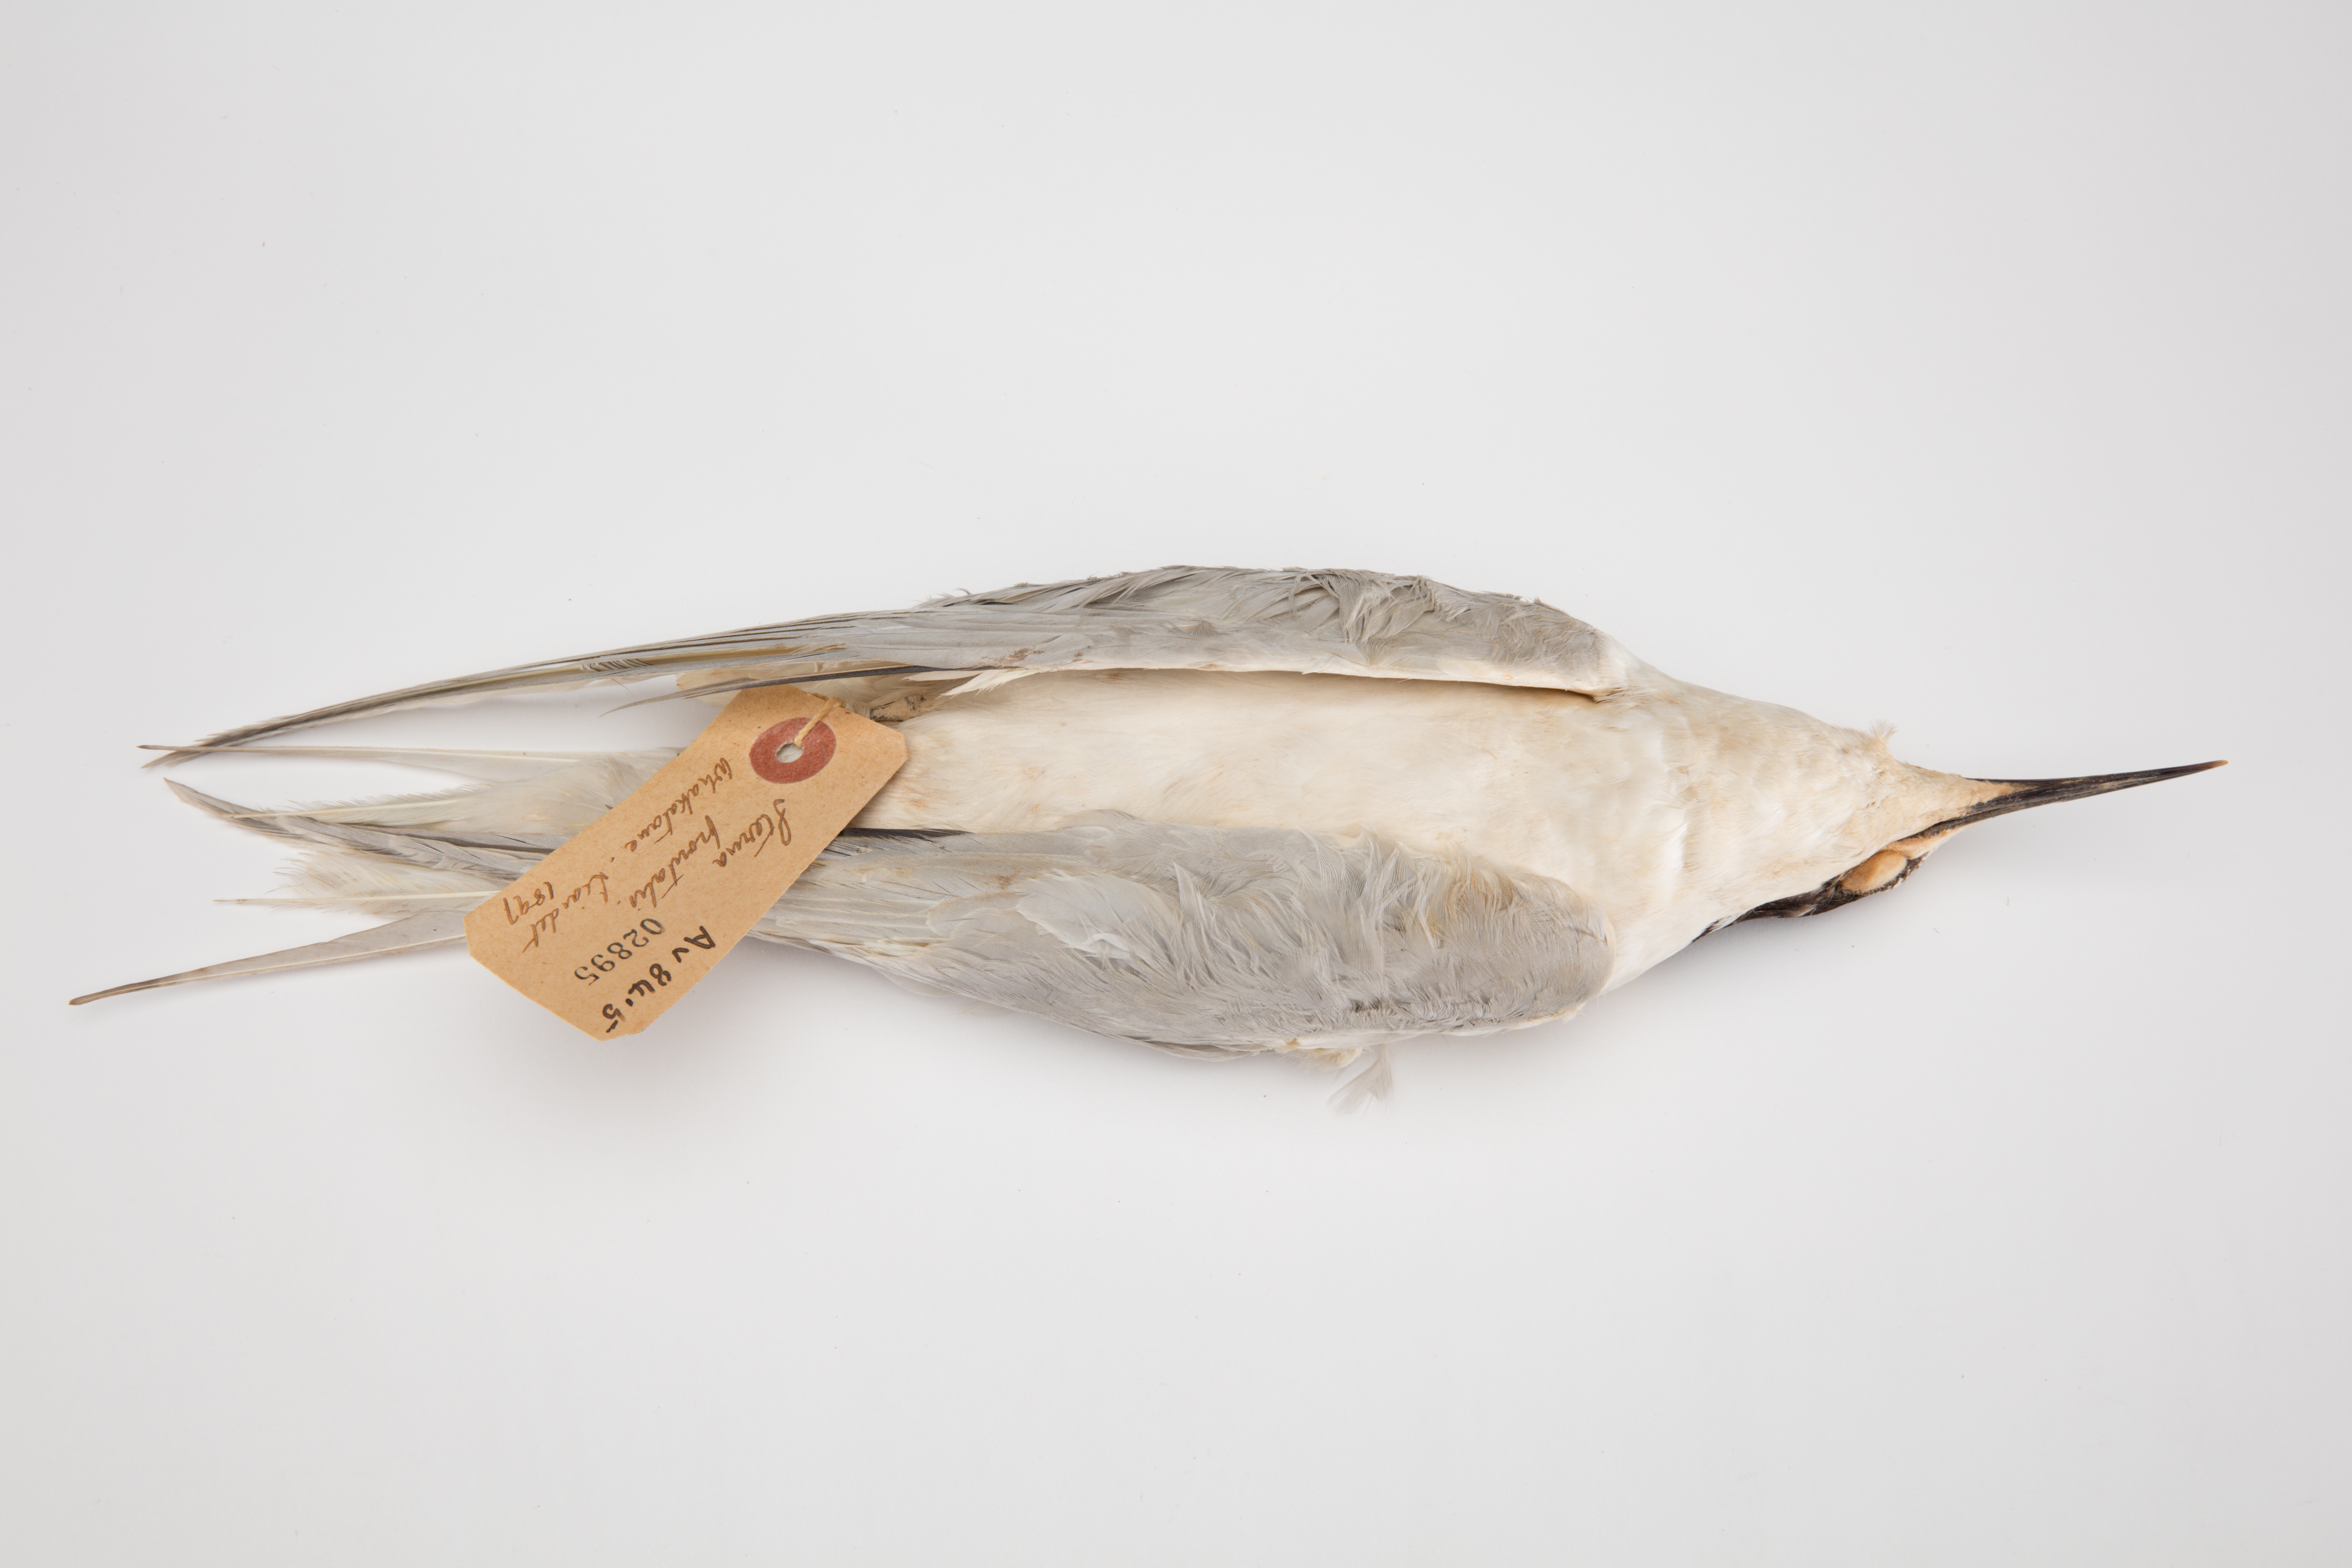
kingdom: Animalia
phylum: Chordata
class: Aves
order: Charadriiformes
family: Laridae
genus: Sterna
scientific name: Sterna striata
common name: White-fronted tern
